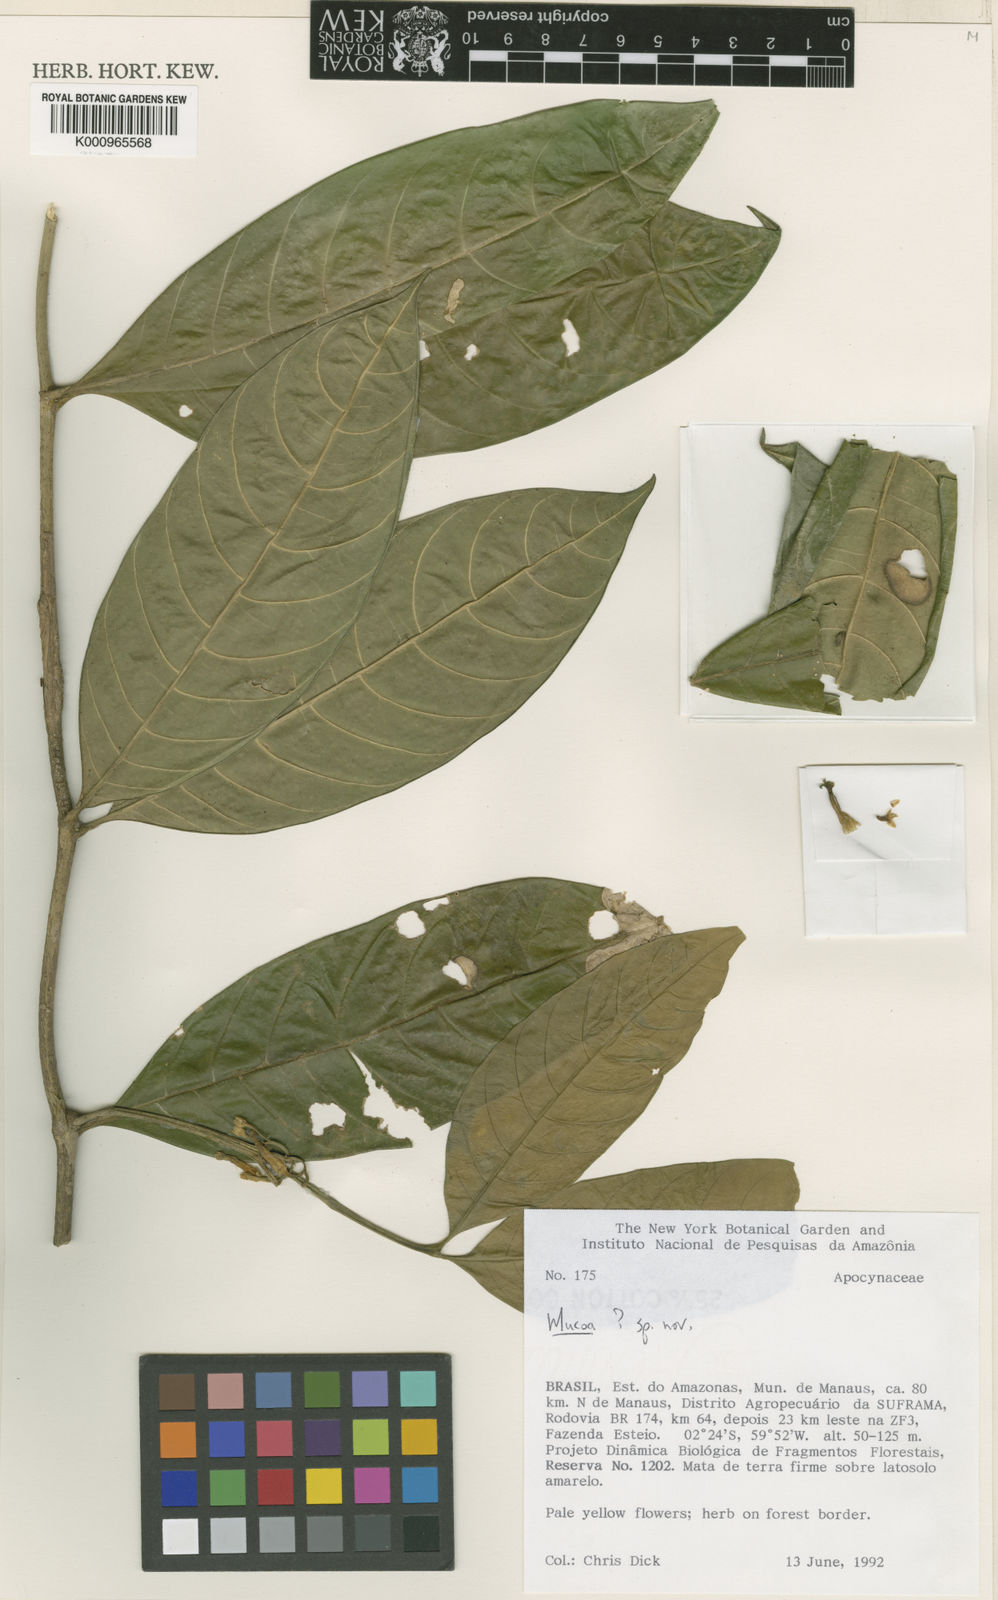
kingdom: Plantae
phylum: Tracheophyta
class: Magnoliopsida
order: Gentianales
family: Apocynaceae
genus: Mucoa
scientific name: Mucoa
